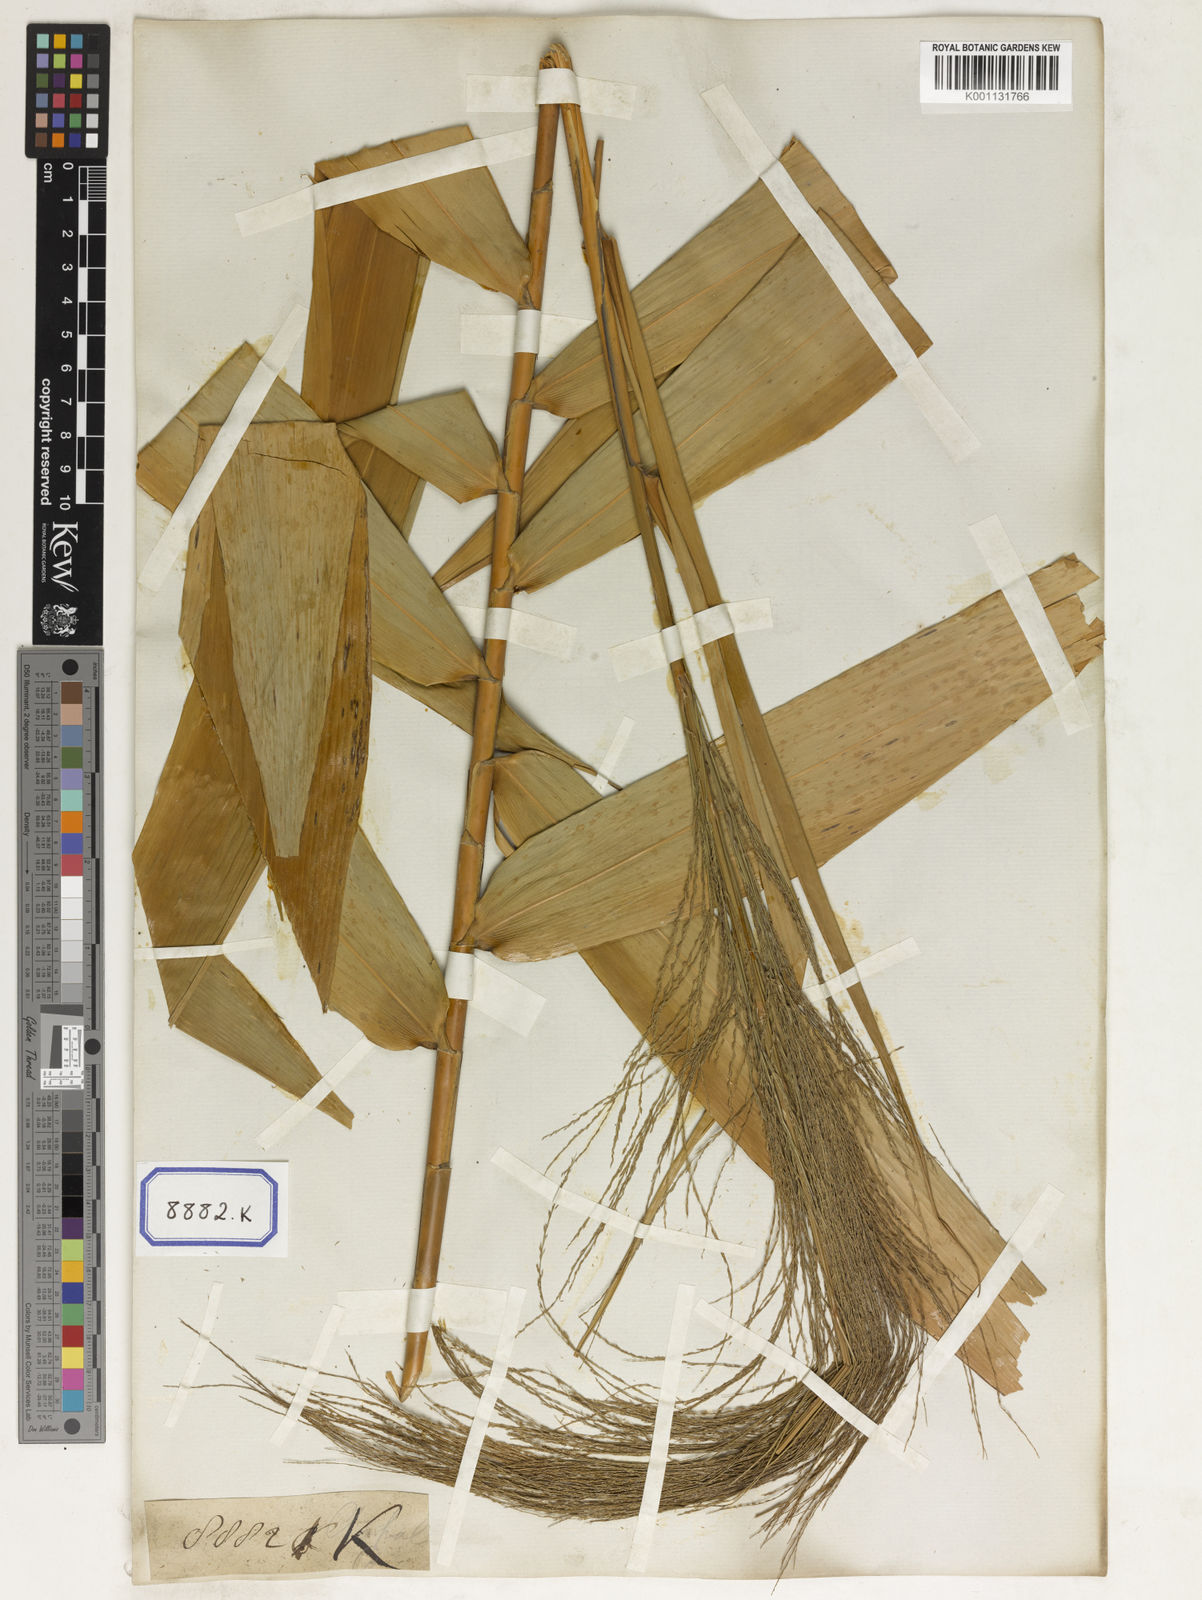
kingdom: Plantae
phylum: Tracheophyta
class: Liliopsida
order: Poales
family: Poaceae
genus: Thysanolaena
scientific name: Thysanolaena latifolia
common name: Tiger grass
